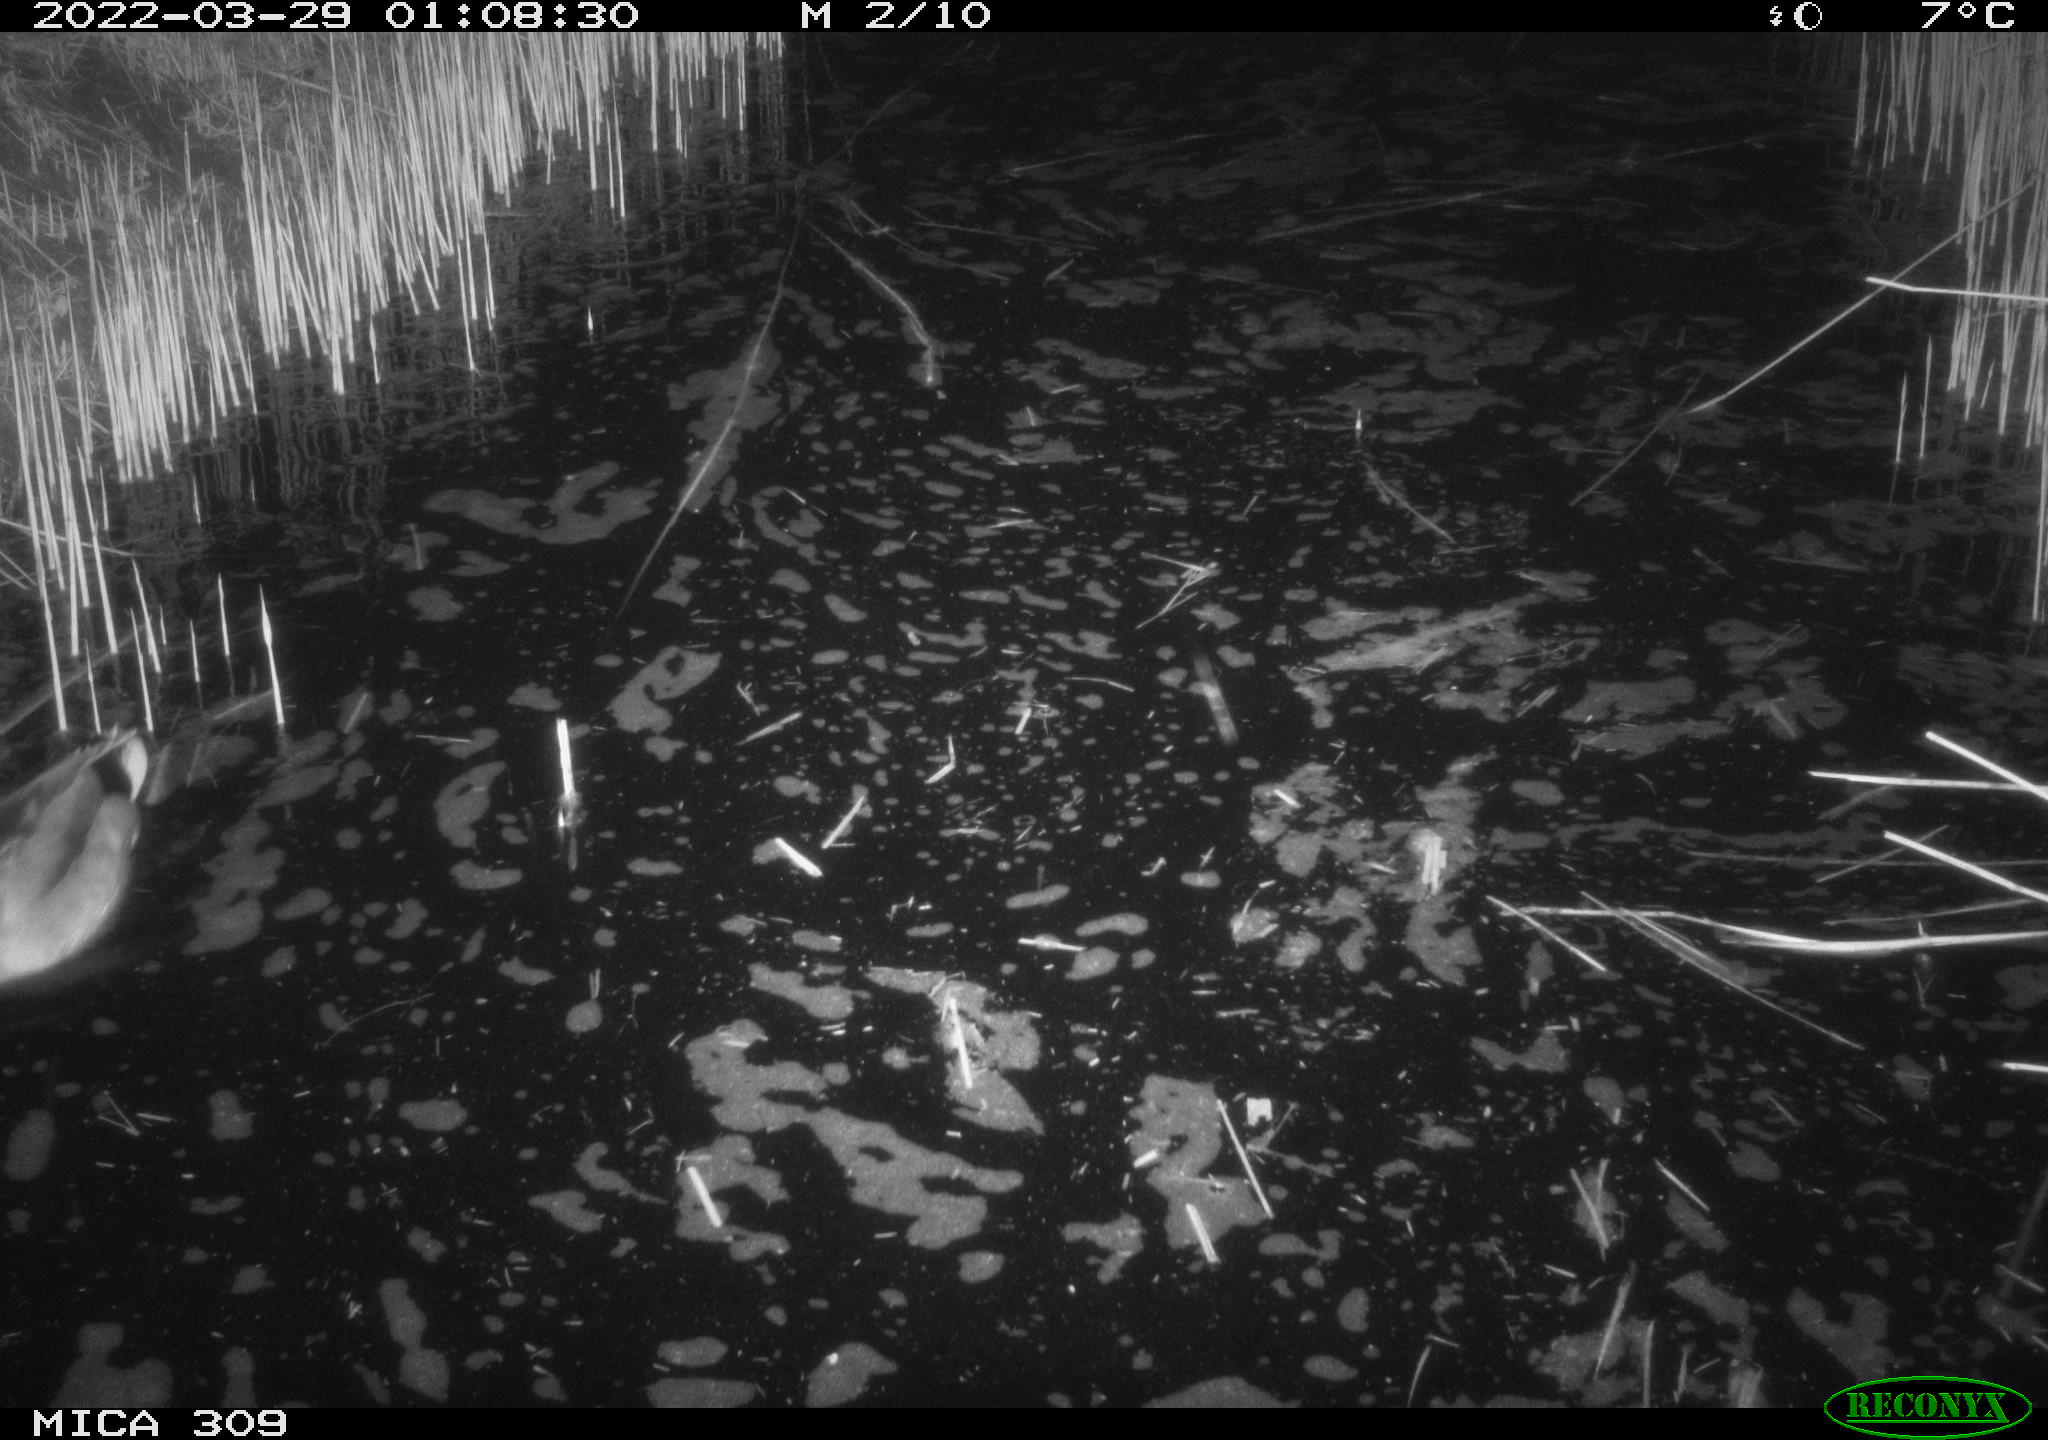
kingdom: Animalia
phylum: Chordata
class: Aves
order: Anseriformes
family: Anatidae
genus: Anas
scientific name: Anas platyrhynchos
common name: Mallard
